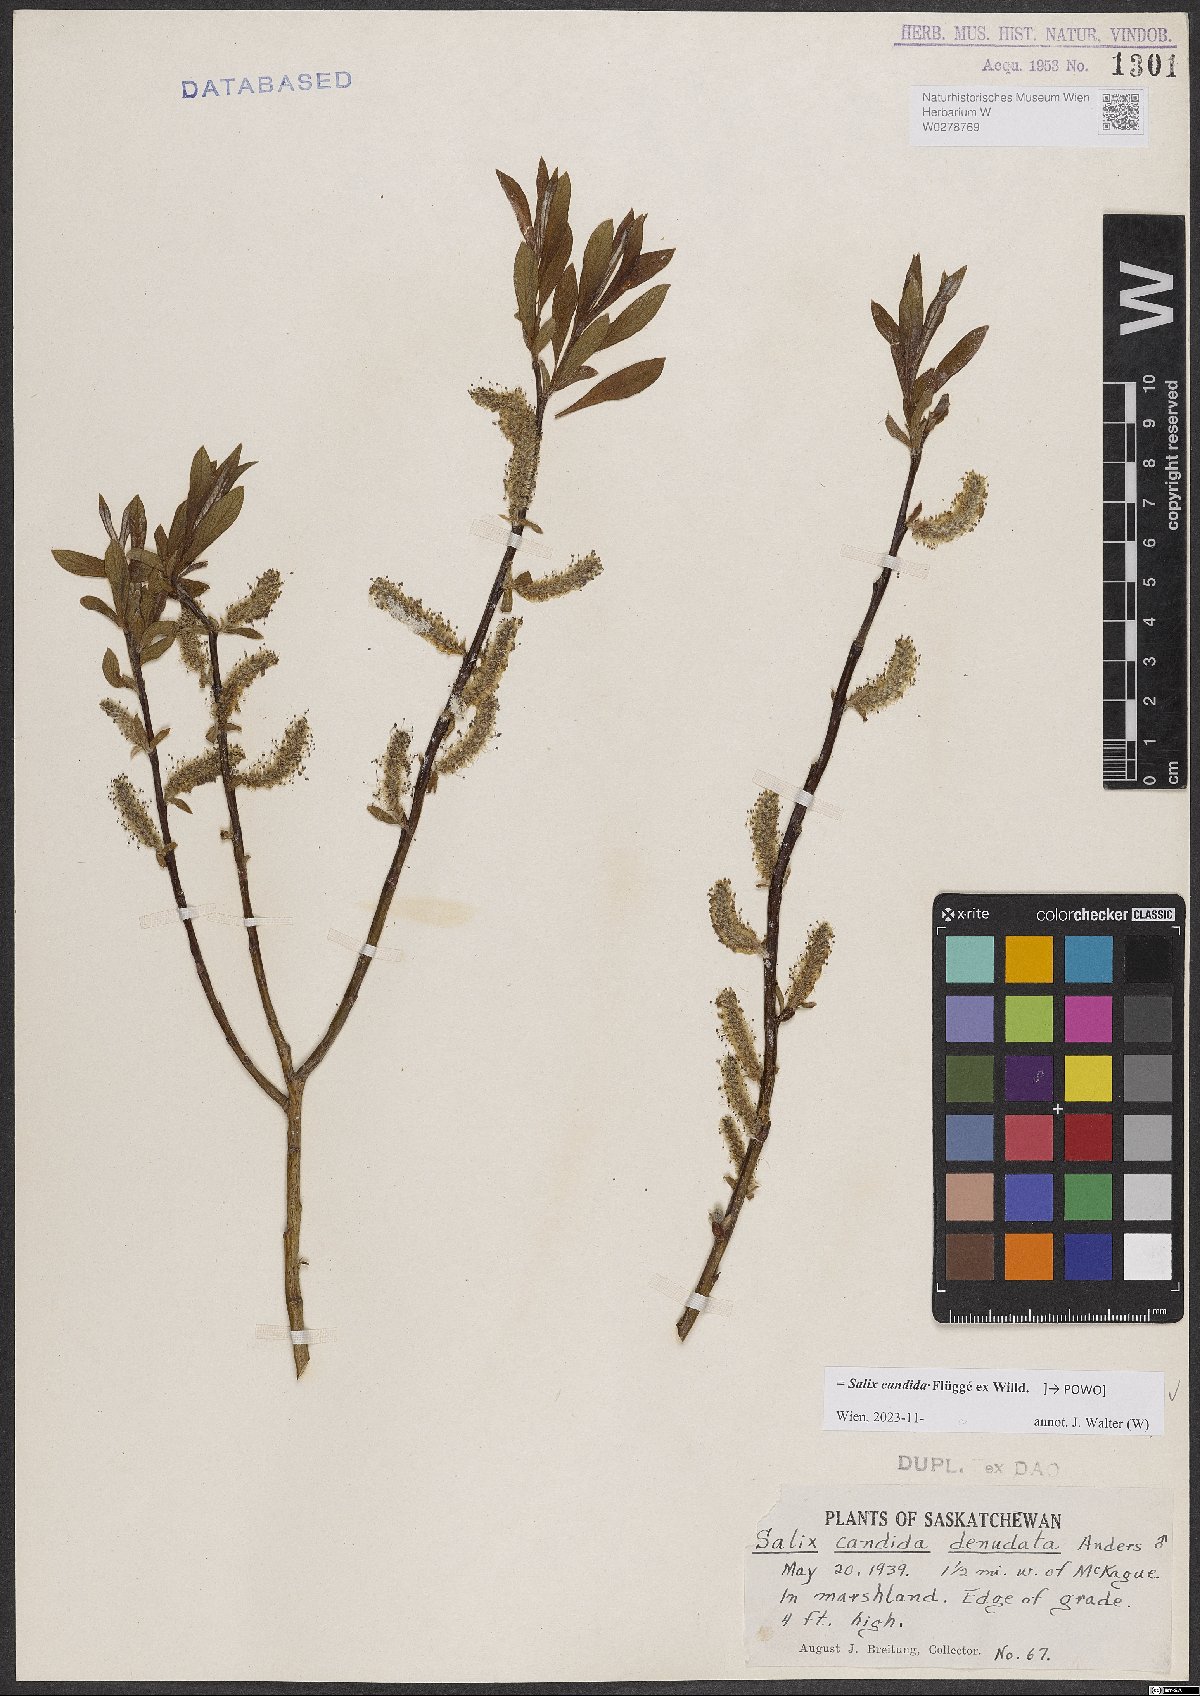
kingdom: Plantae
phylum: Tracheophyta
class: Magnoliopsida
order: Malpighiales
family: Salicaceae
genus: Salix
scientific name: Salix candida
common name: Hoary willow
